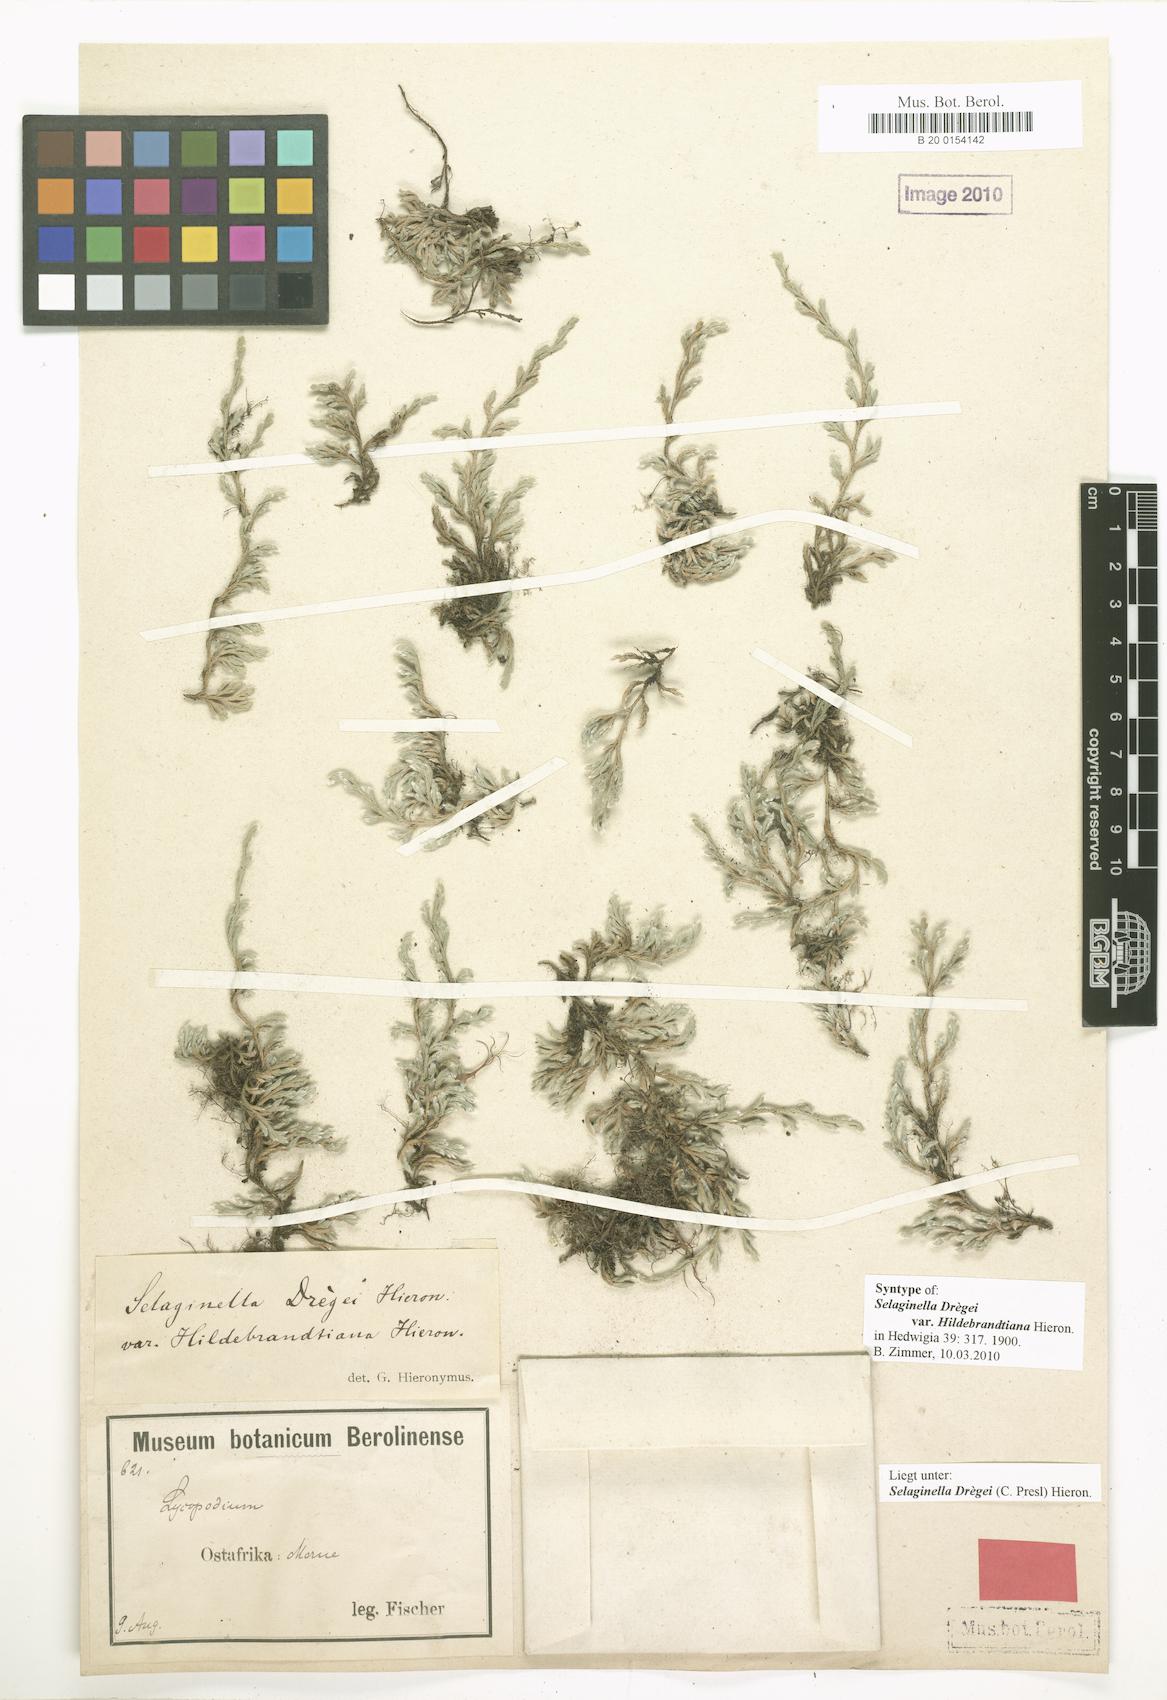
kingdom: Plantae
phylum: Tracheophyta
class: Lycopodiopsida
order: Selaginellales
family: Selaginellaceae
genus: Selaginella
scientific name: Selaginella dregei
